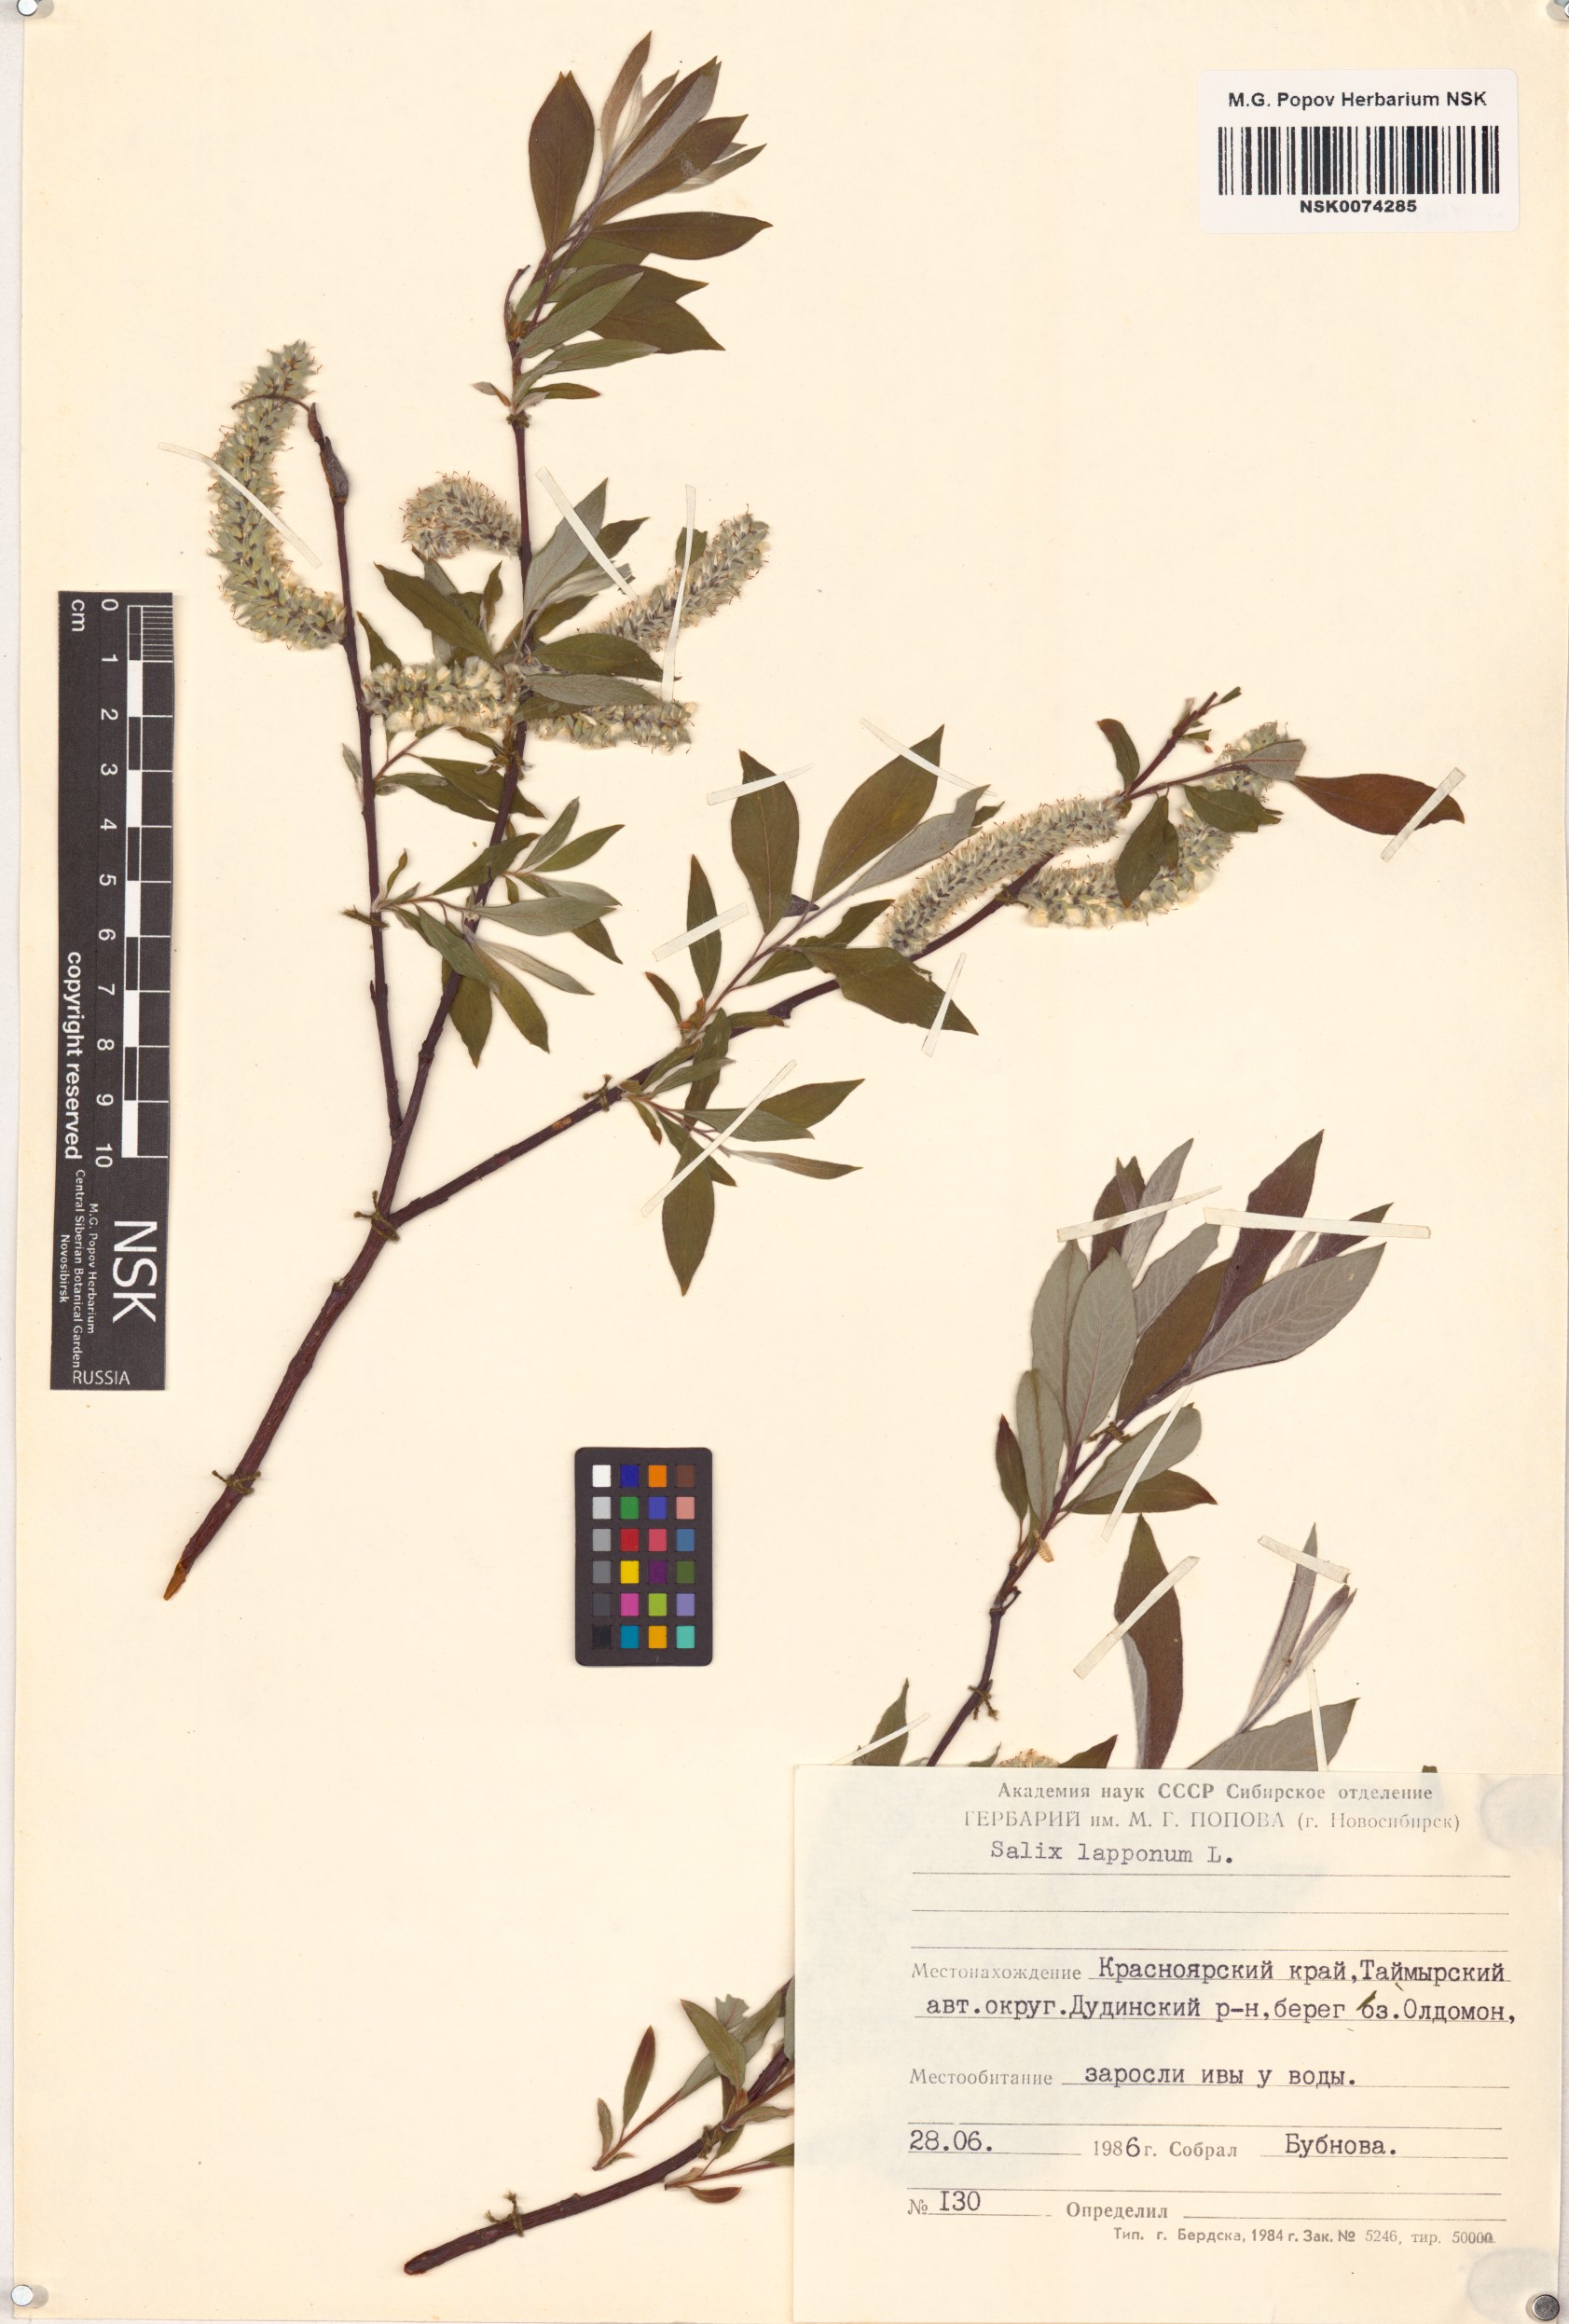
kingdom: Plantae
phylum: Tracheophyta
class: Magnoliopsida
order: Malpighiales
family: Salicaceae
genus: Salix
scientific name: Salix lapponum
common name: Downy willow
